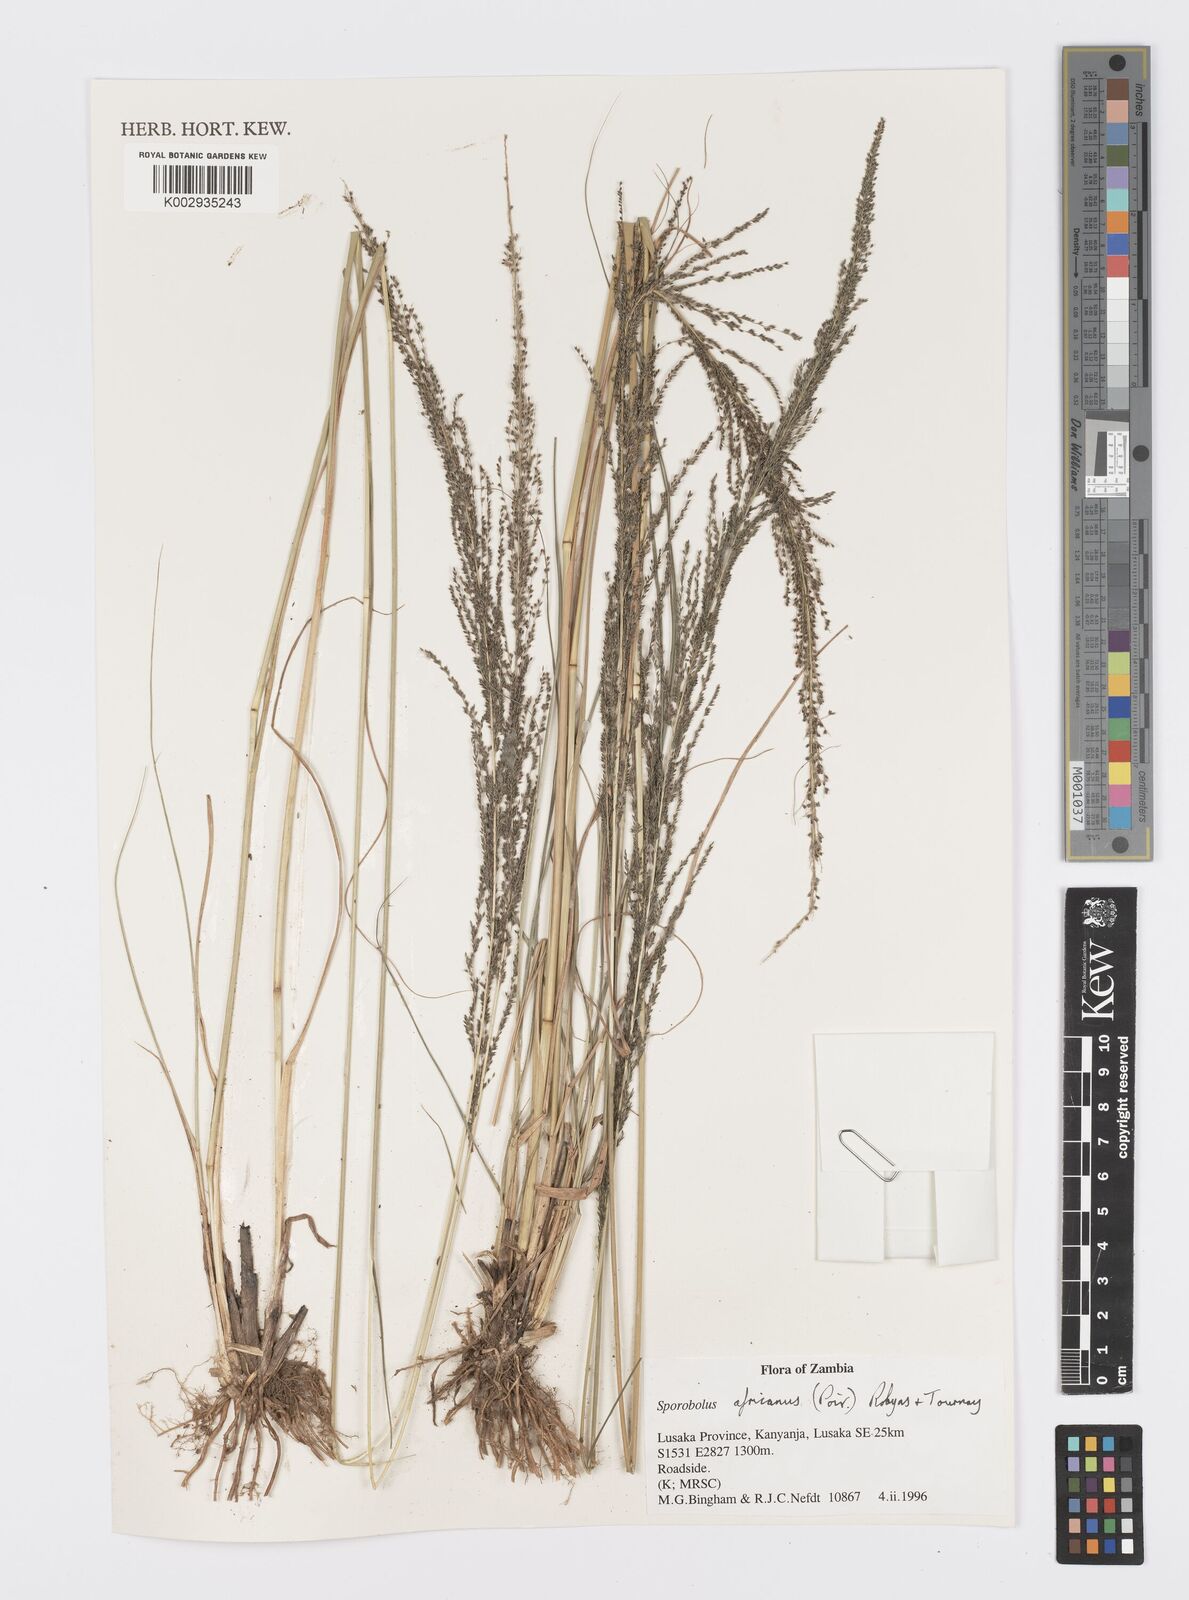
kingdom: Plantae
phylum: Tracheophyta
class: Liliopsida
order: Poales
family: Poaceae
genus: Sporobolus
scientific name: Sporobolus africanus
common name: African dropseed
